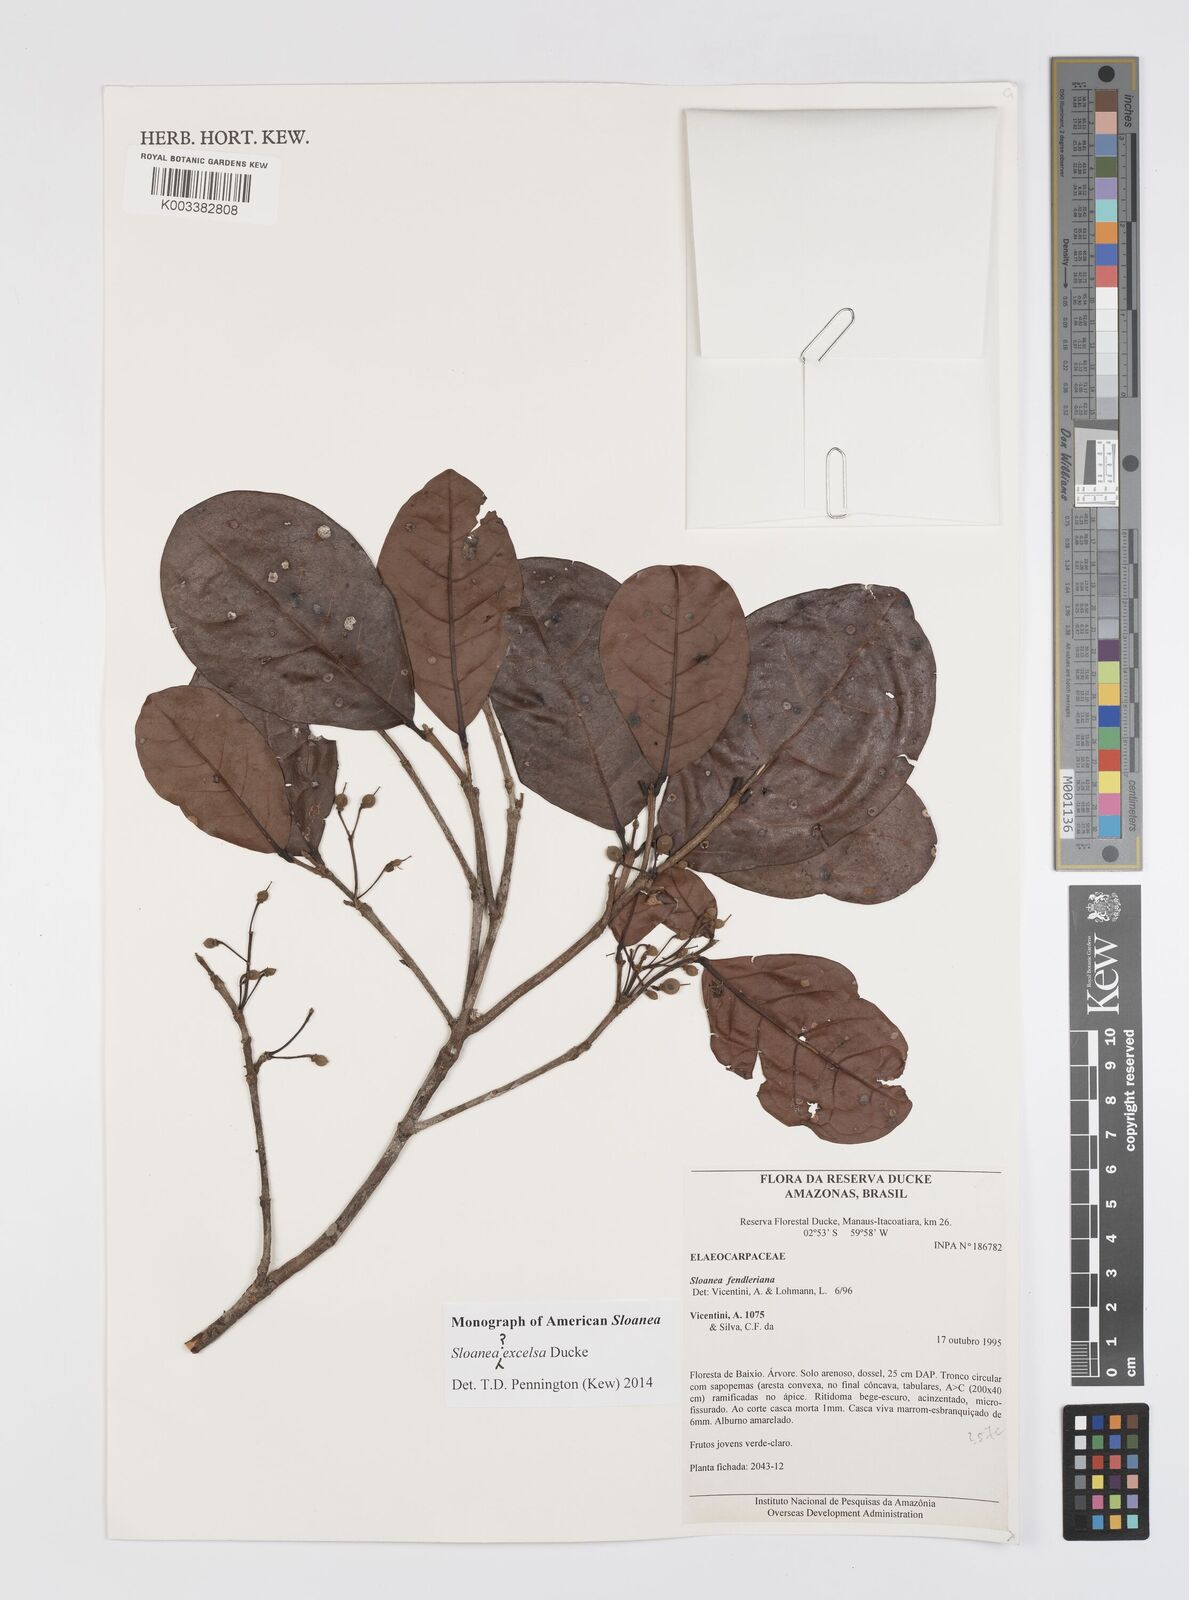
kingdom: Plantae
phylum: Tracheophyta
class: Magnoliopsida
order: Oxalidales
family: Elaeocarpaceae
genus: Sloanea
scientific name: Sloanea laurifolia
